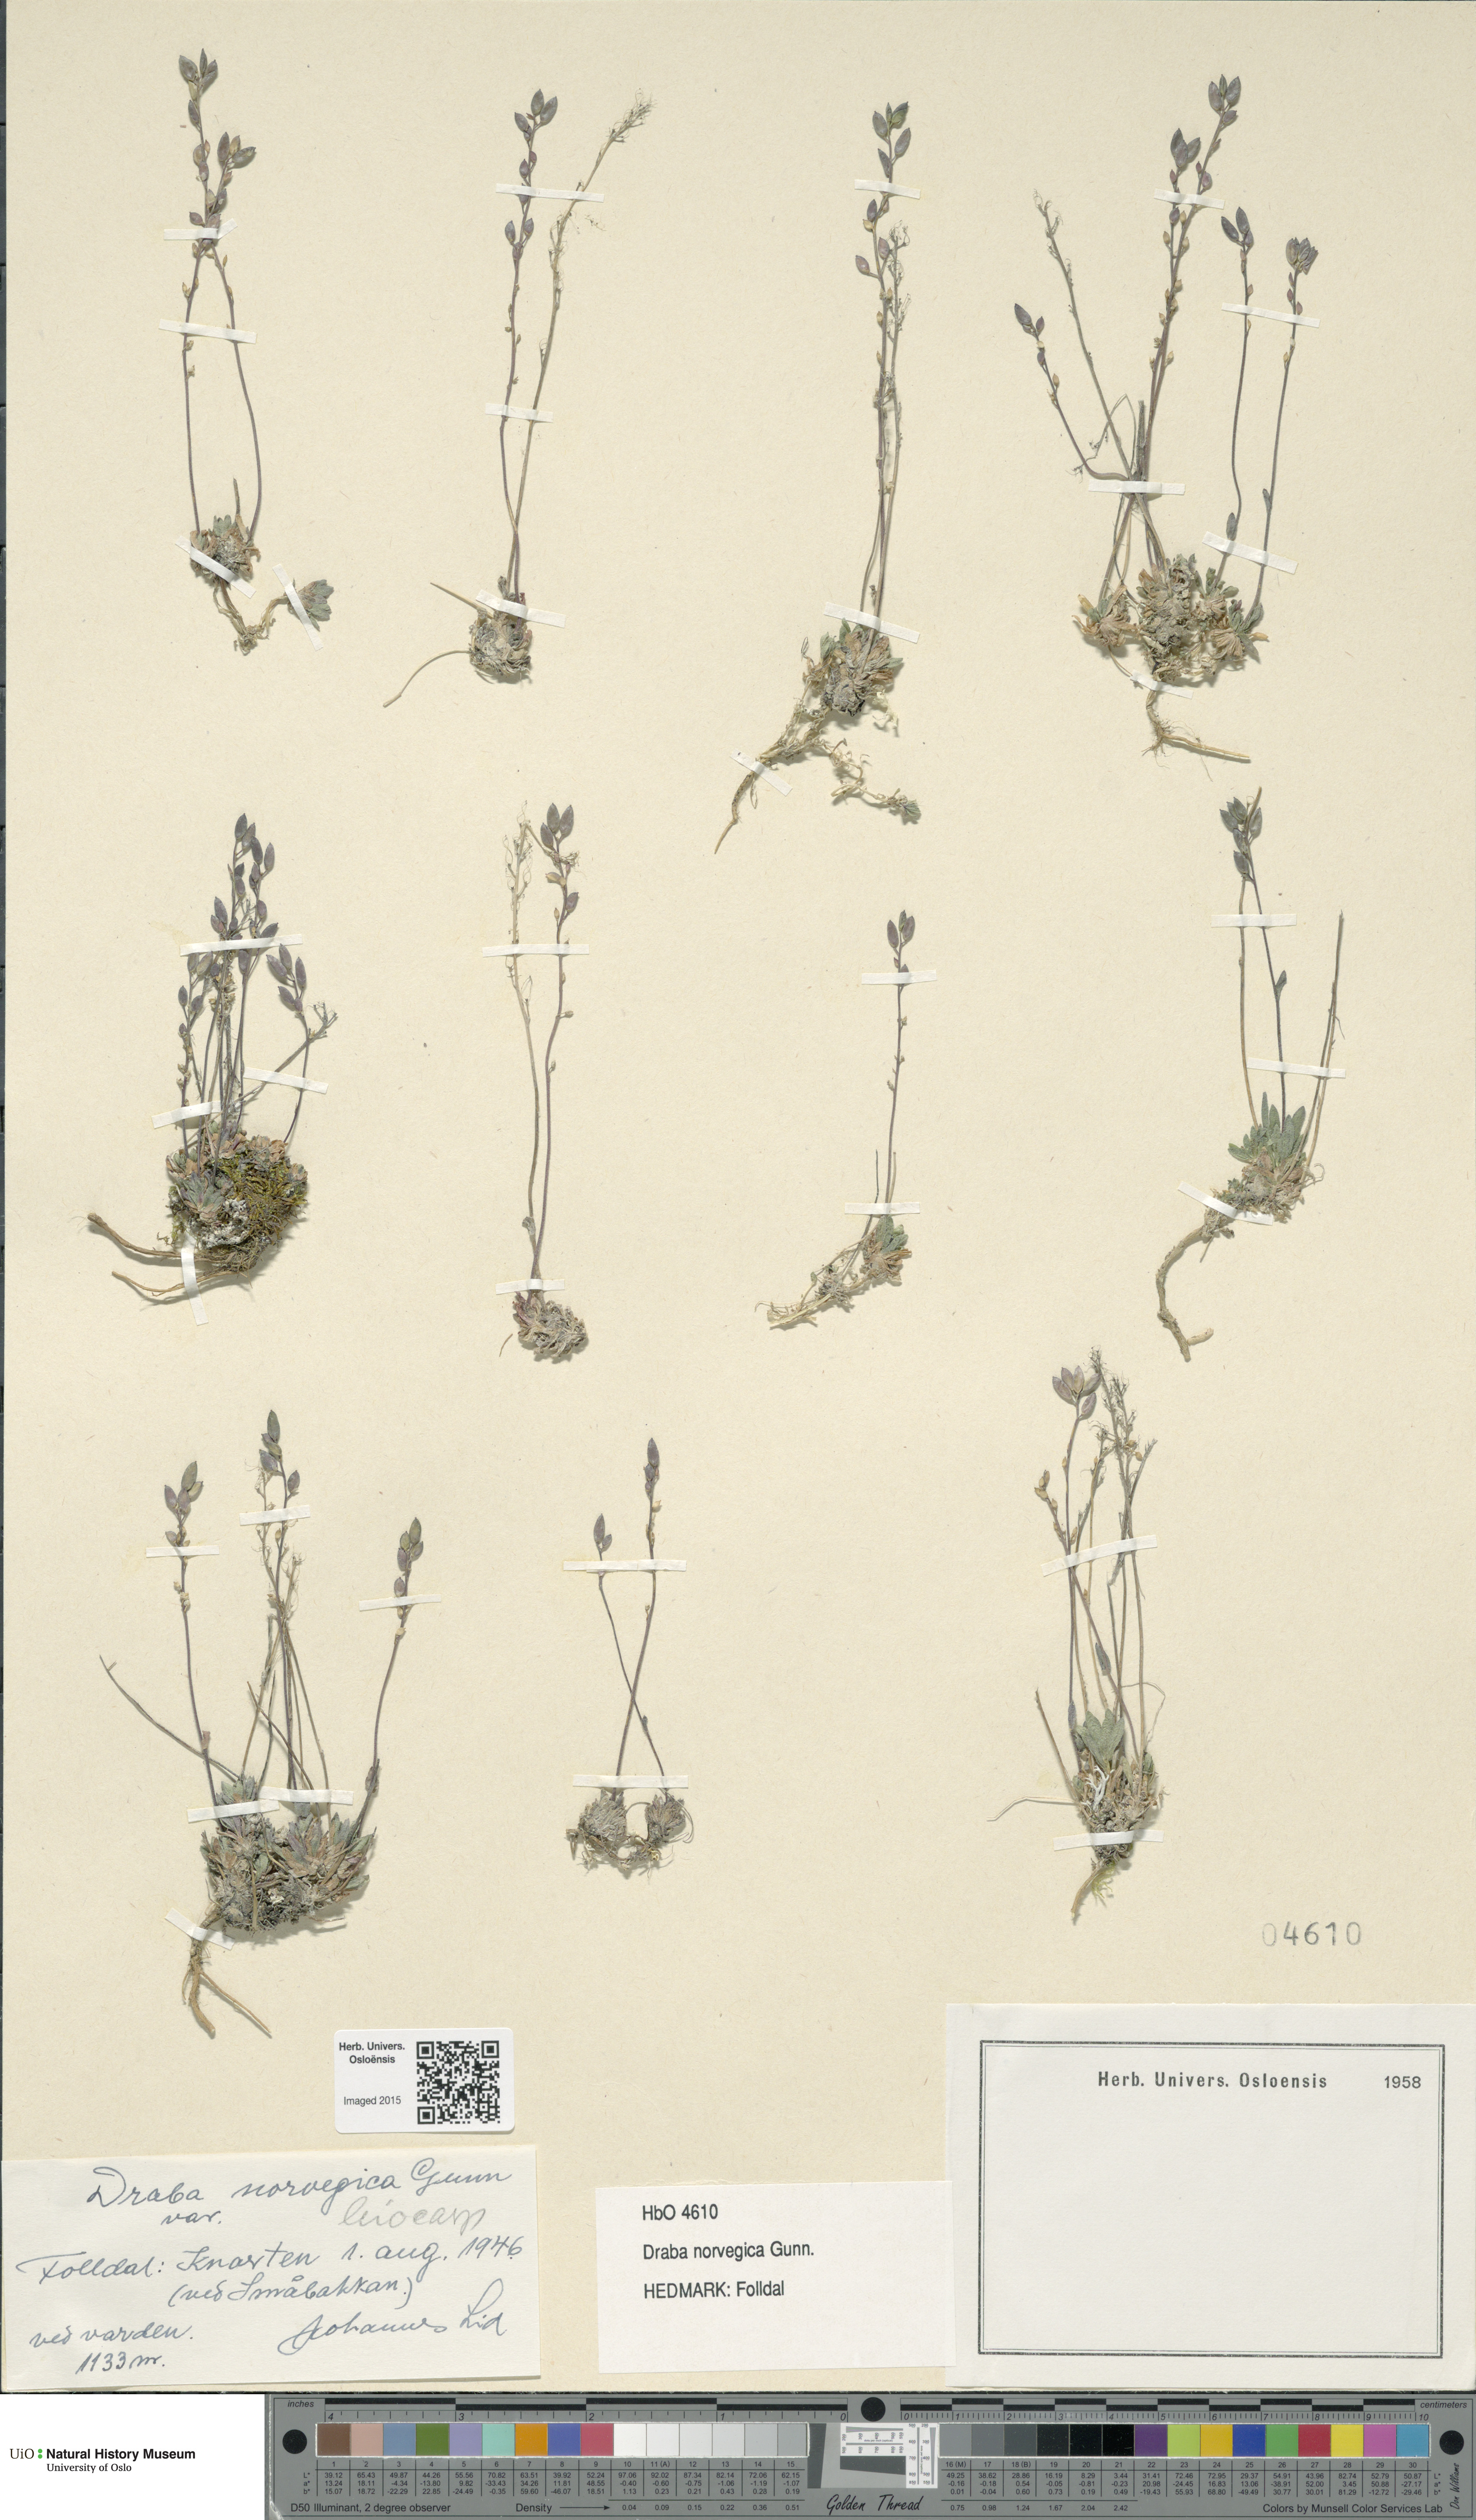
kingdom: Plantae
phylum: Tracheophyta
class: Magnoliopsida
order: Brassicales
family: Brassicaceae
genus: Draba
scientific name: Draba norvegica
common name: Rock whitlowgrass
